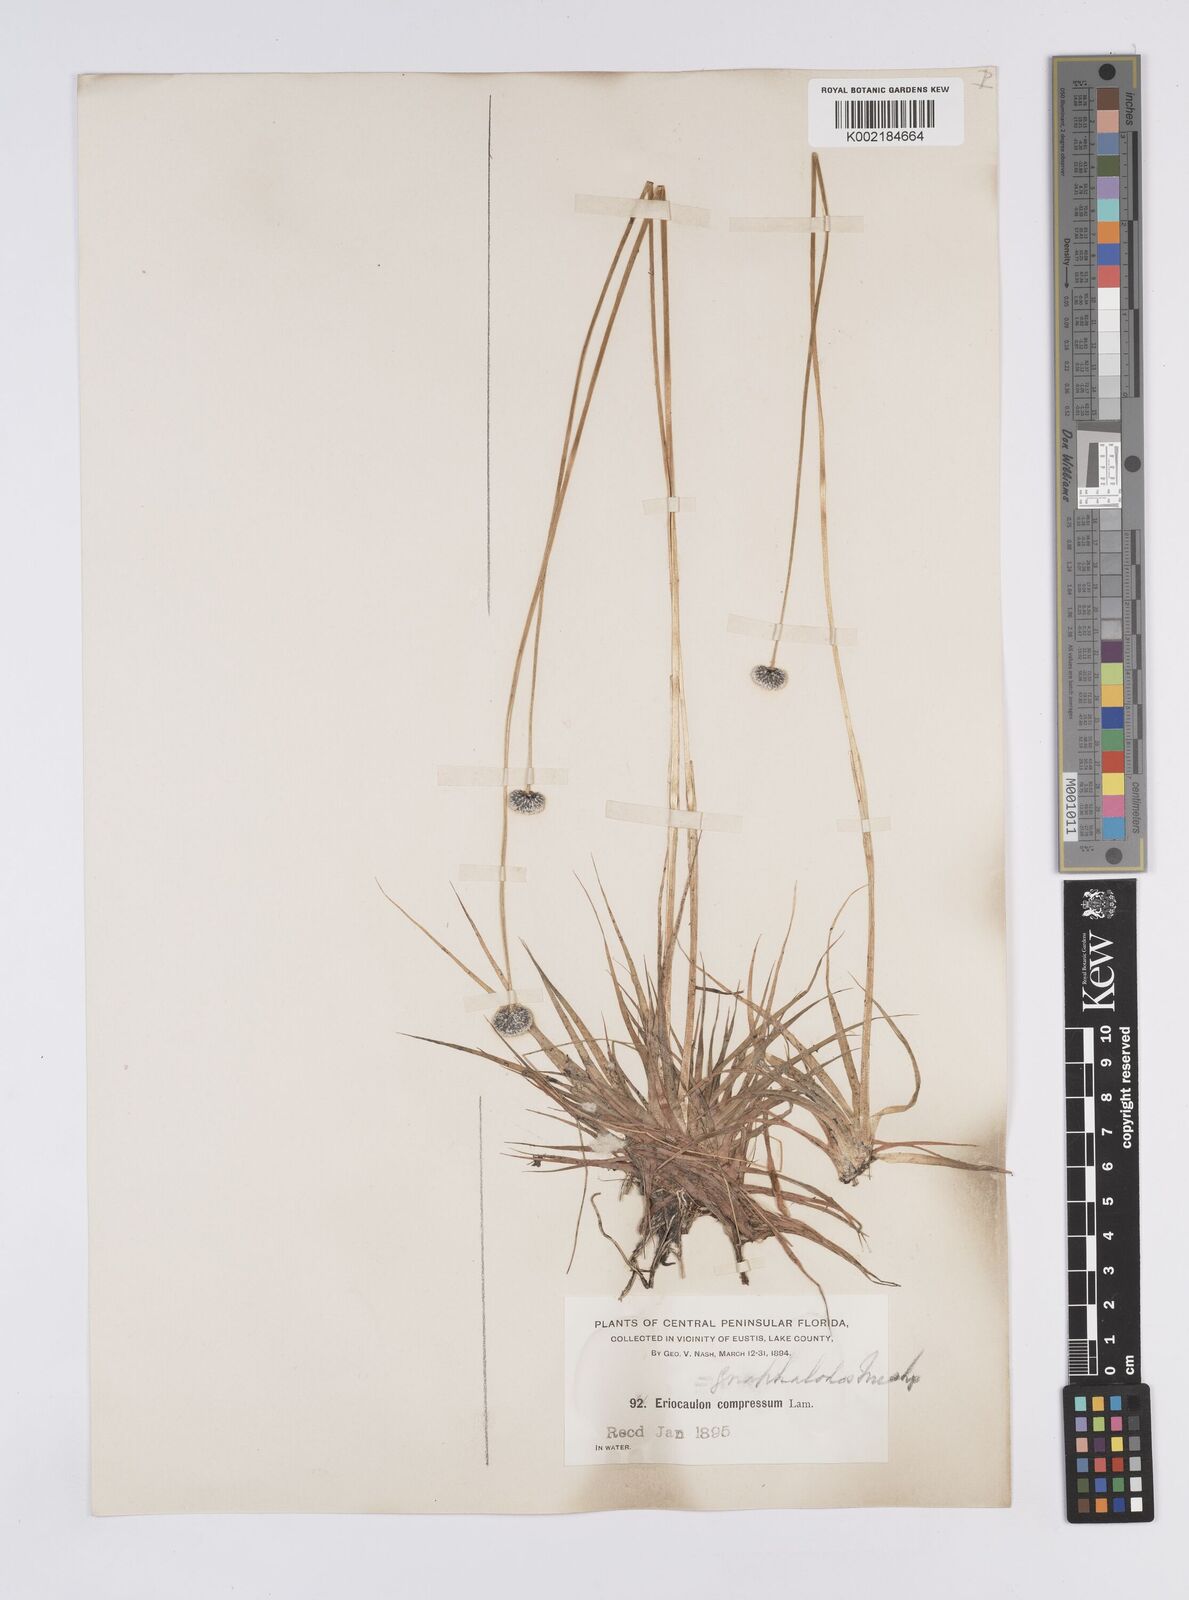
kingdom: Plantae
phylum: Tracheophyta
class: Liliopsida
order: Poales
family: Eriocaulaceae
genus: Eriocaulon
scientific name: Eriocaulon compressum
